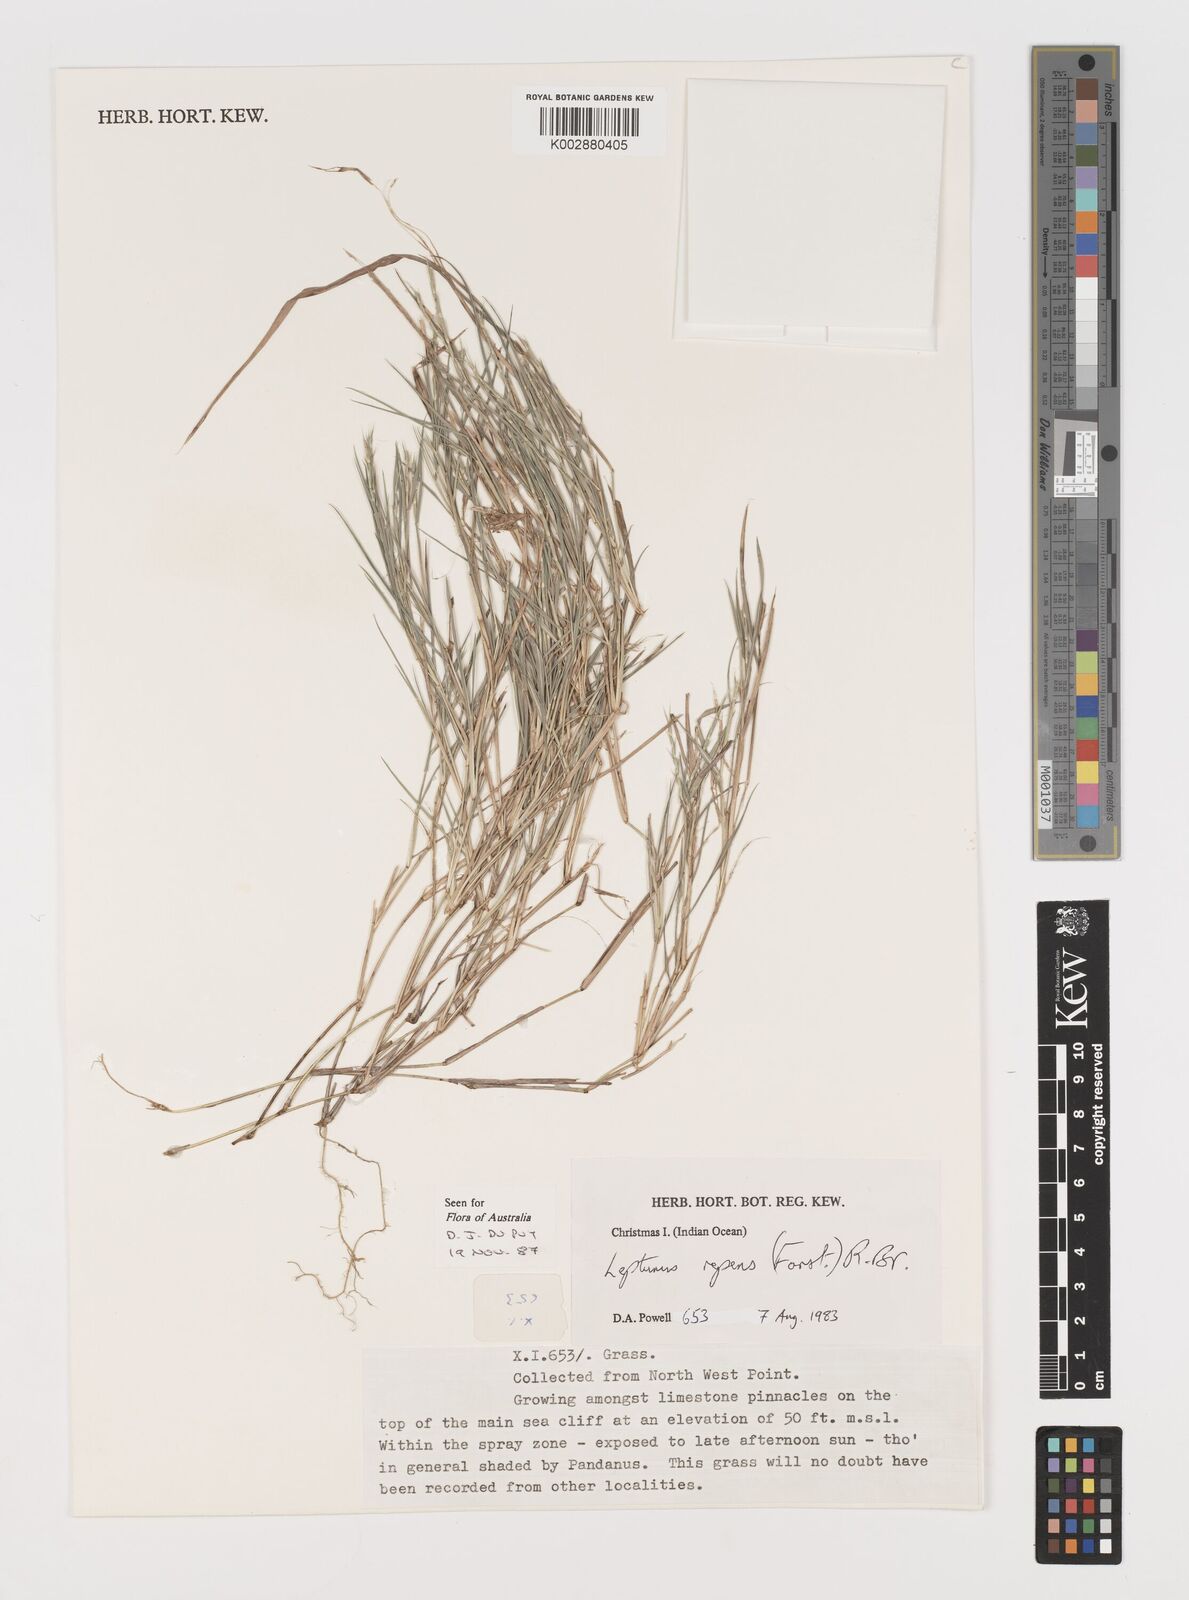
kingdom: Plantae
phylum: Tracheophyta
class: Liliopsida
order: Poales
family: Poaceae
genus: Lepturus
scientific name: Lepturus repens
